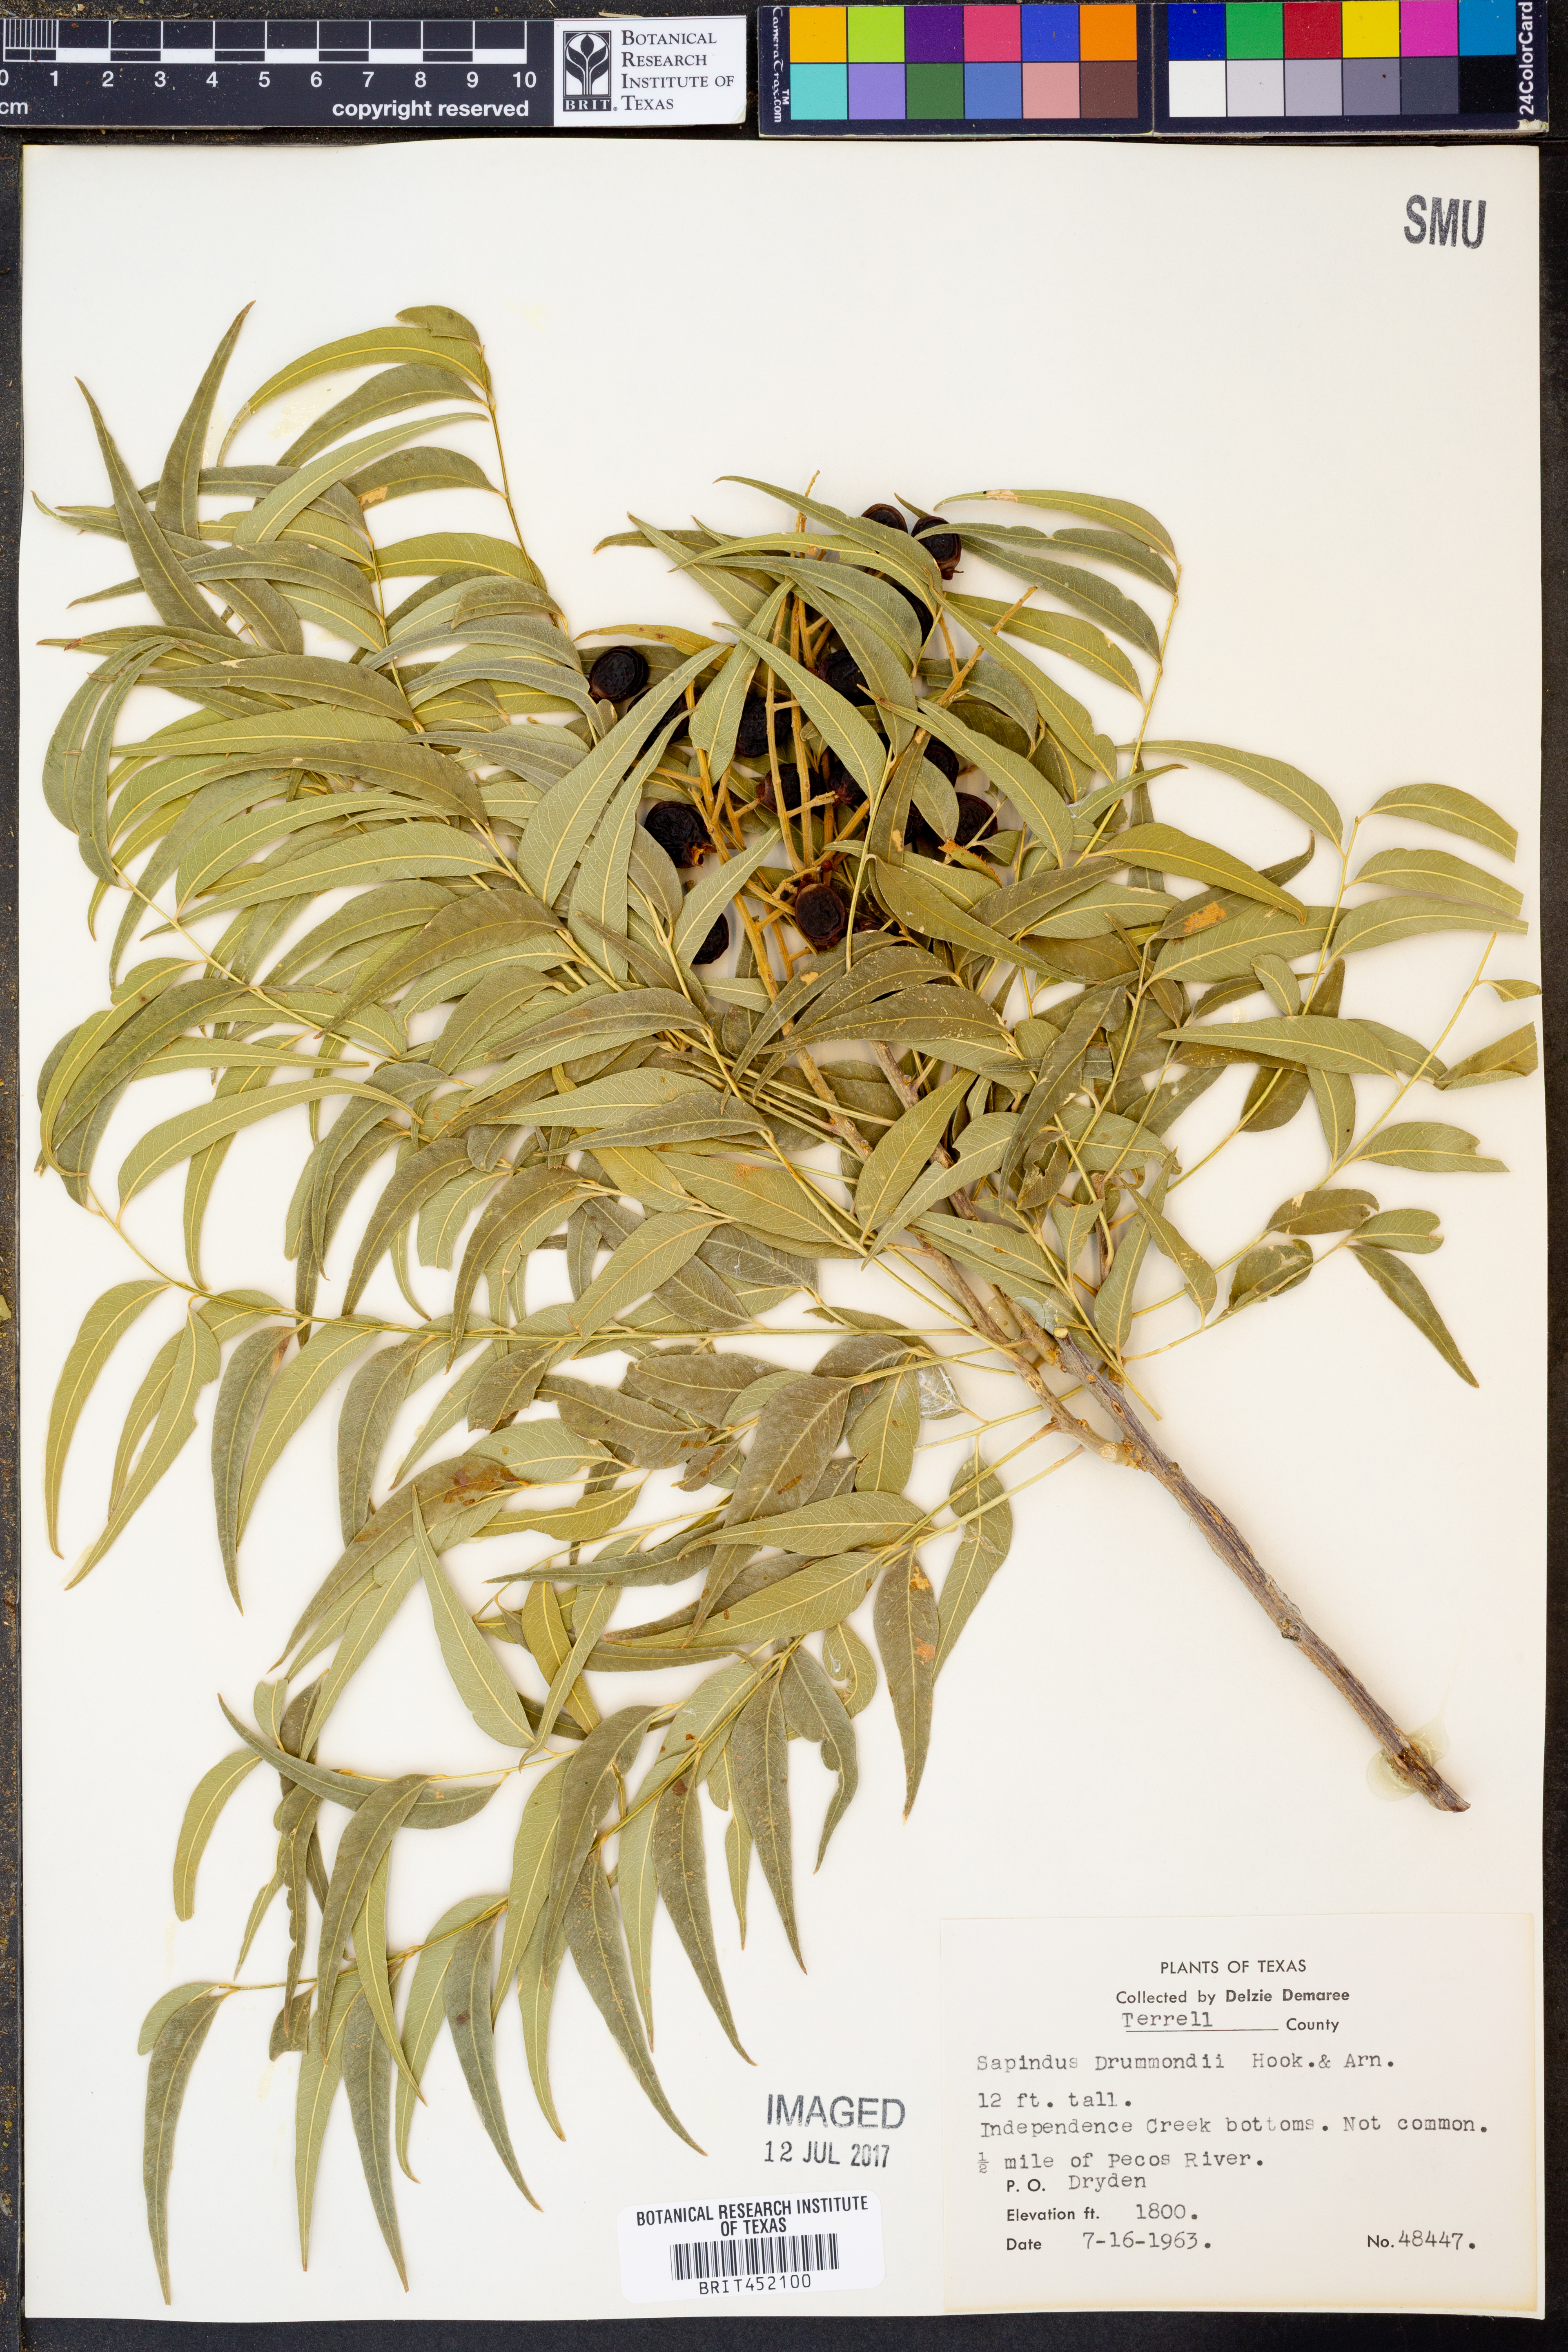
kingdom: Plantae
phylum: Tracheophyta
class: Magnoliopsida
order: Sapindales
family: Sapindaceae
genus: Sapindus
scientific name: Sapindus drummondii
